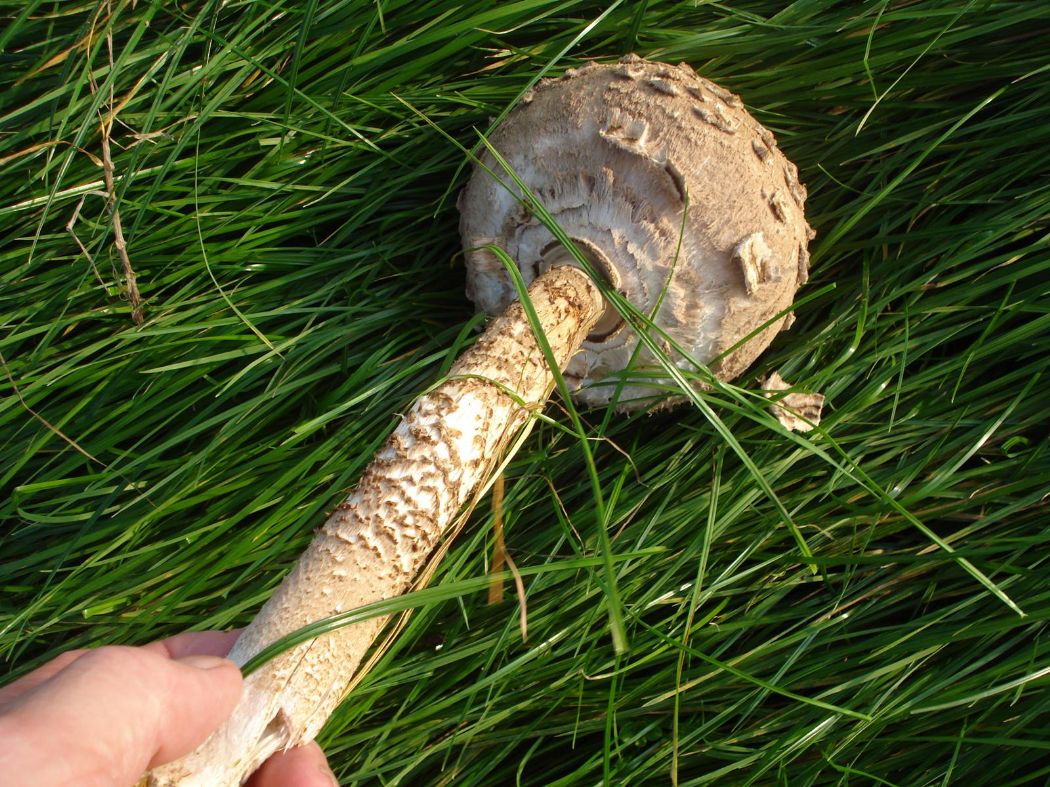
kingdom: Fungi
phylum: Basidiomycota
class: Agaricomycetes
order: Agaricales
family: Agaricaceae
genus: Macrolepiota
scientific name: Macrolepiota procera
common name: stor kæmpeparasolhat
